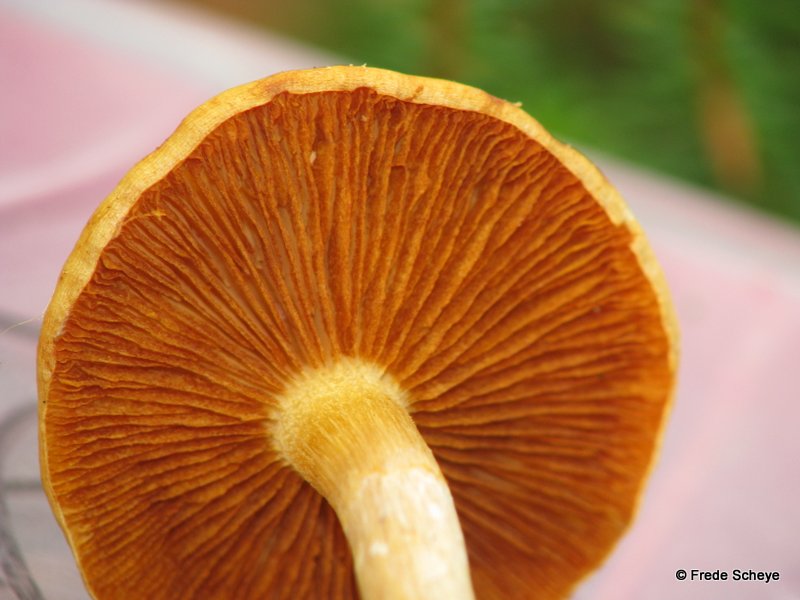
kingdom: Fungi
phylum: Basidiomycota
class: Agaricomycetes
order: Agaricales
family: Hymenogastraceae
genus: Gymnopilus
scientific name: Gymnopilus penetrans
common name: plettet flammehat
